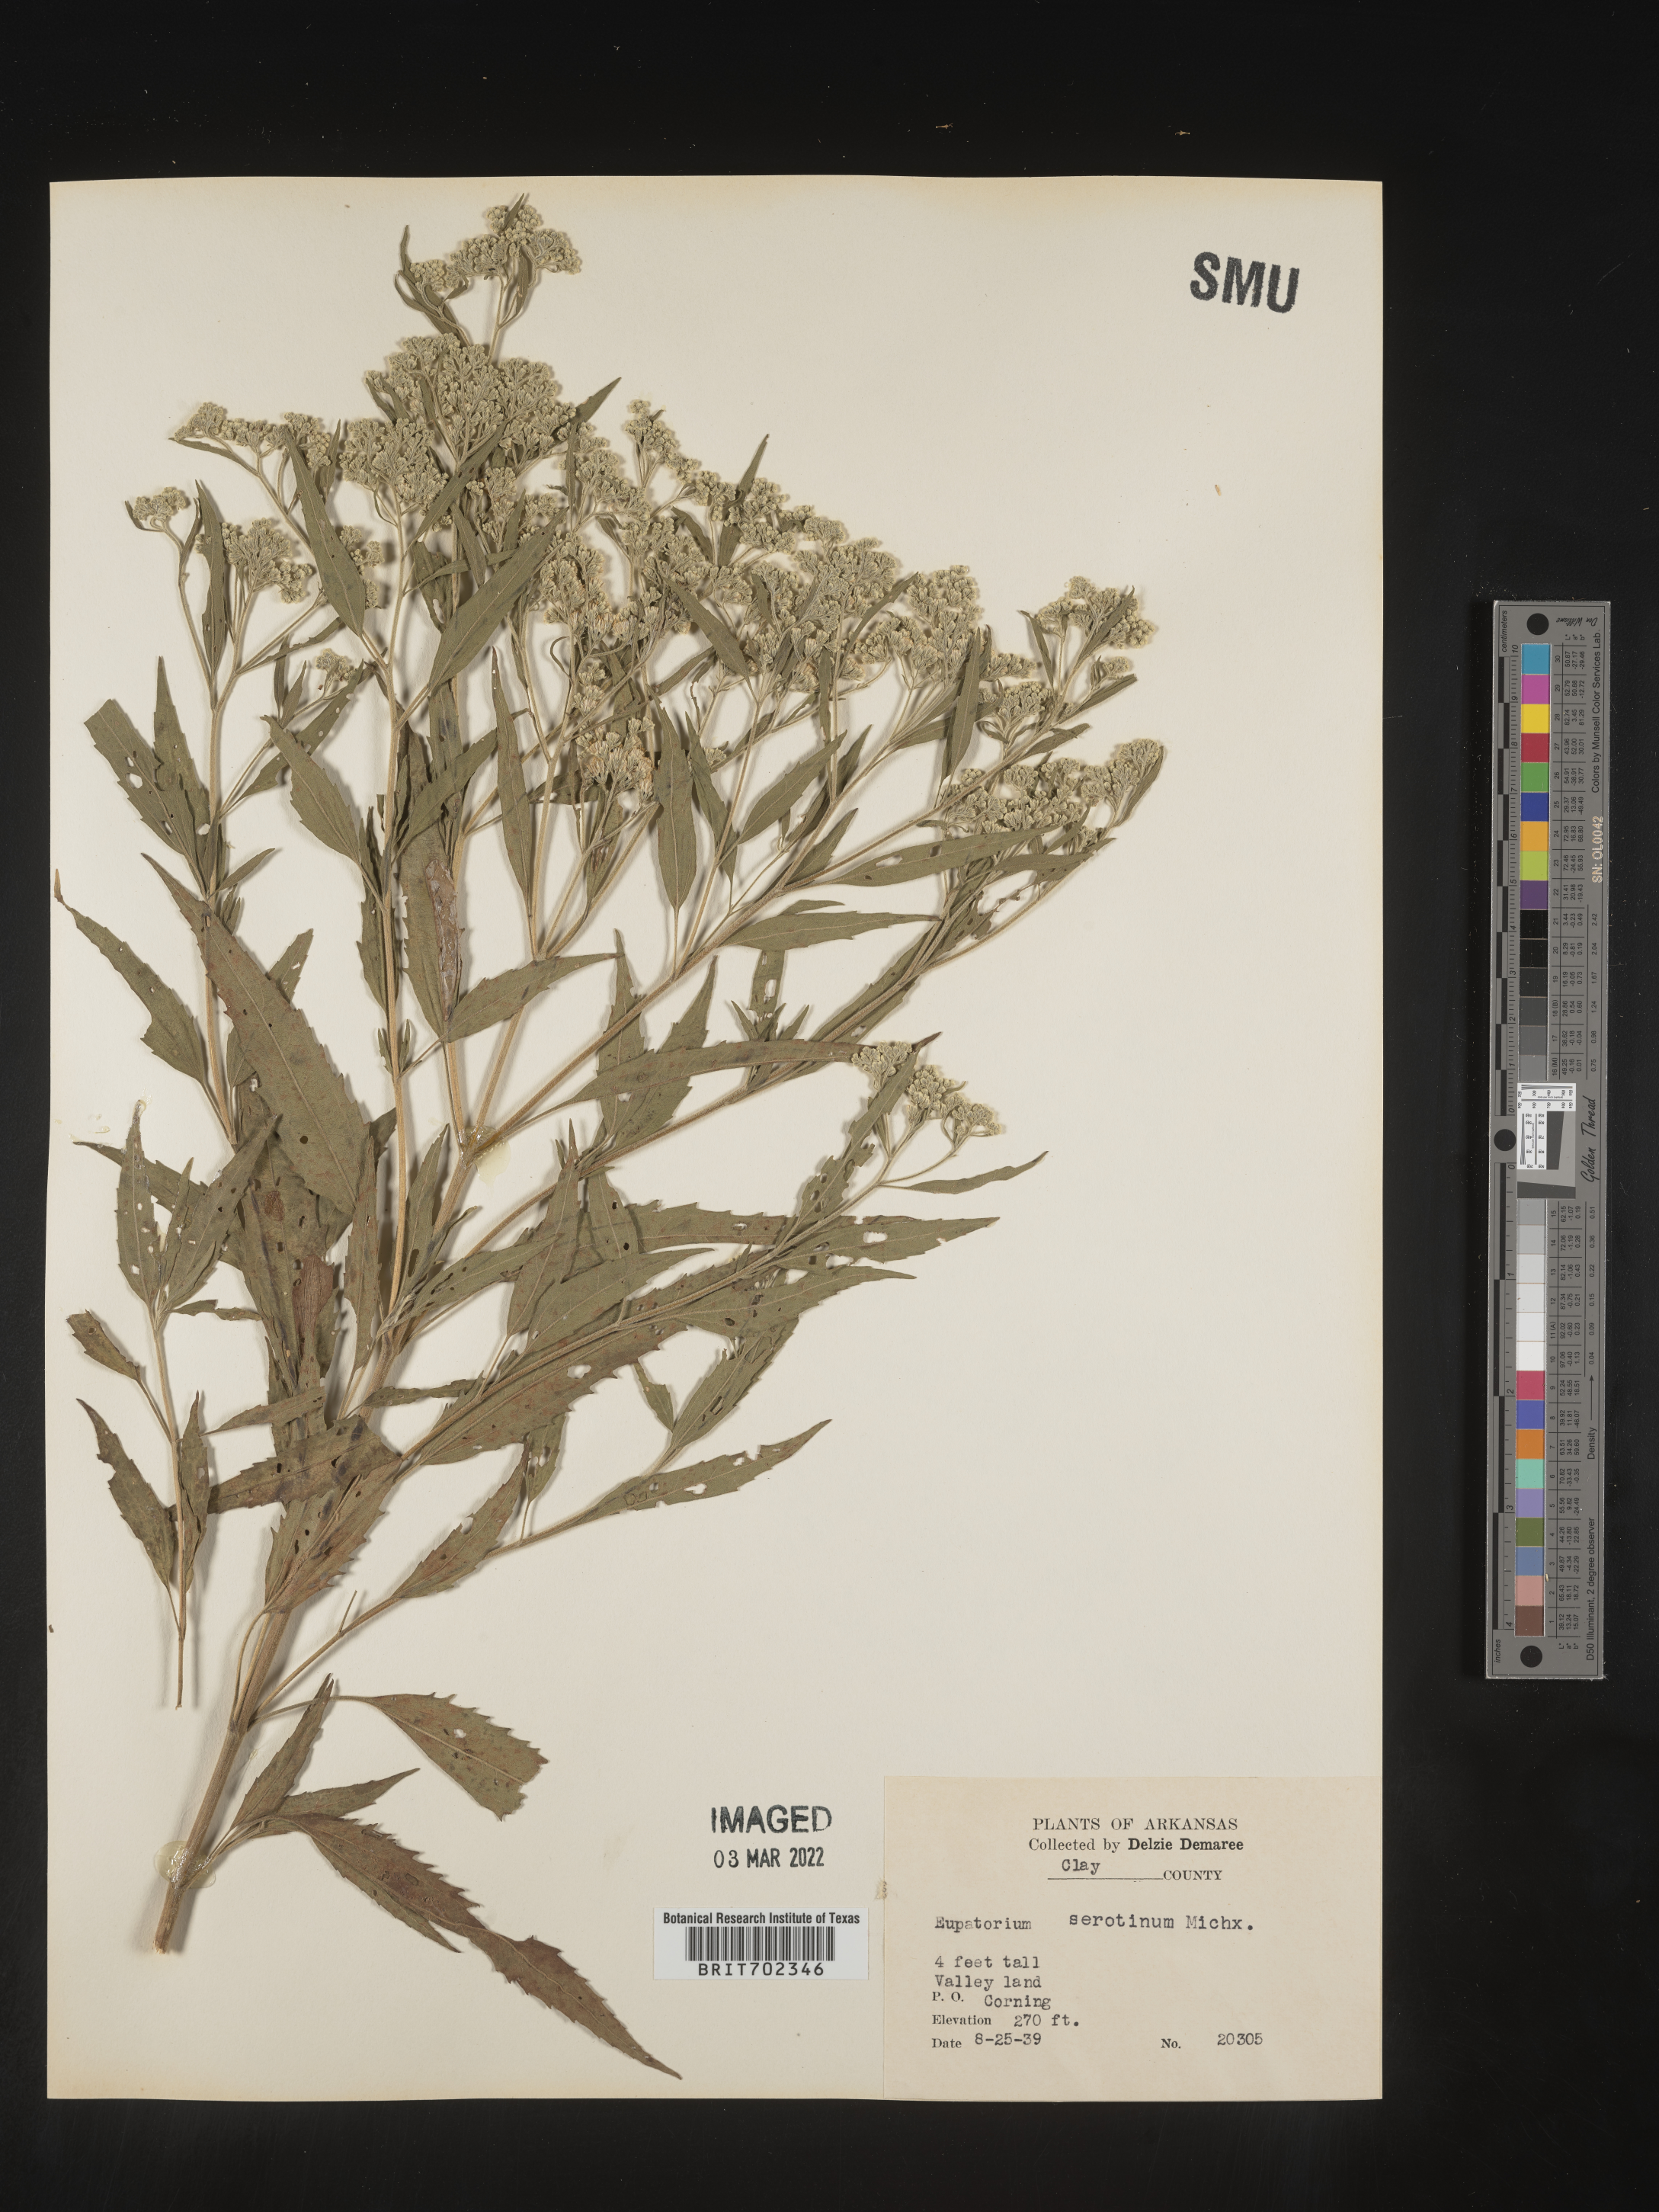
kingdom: Plantae
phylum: Tracheophyta
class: Magnoliopsida
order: Asterales
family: Asteraceae
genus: Eupatorium
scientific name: Eupatorium serotinum
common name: Late boneset
